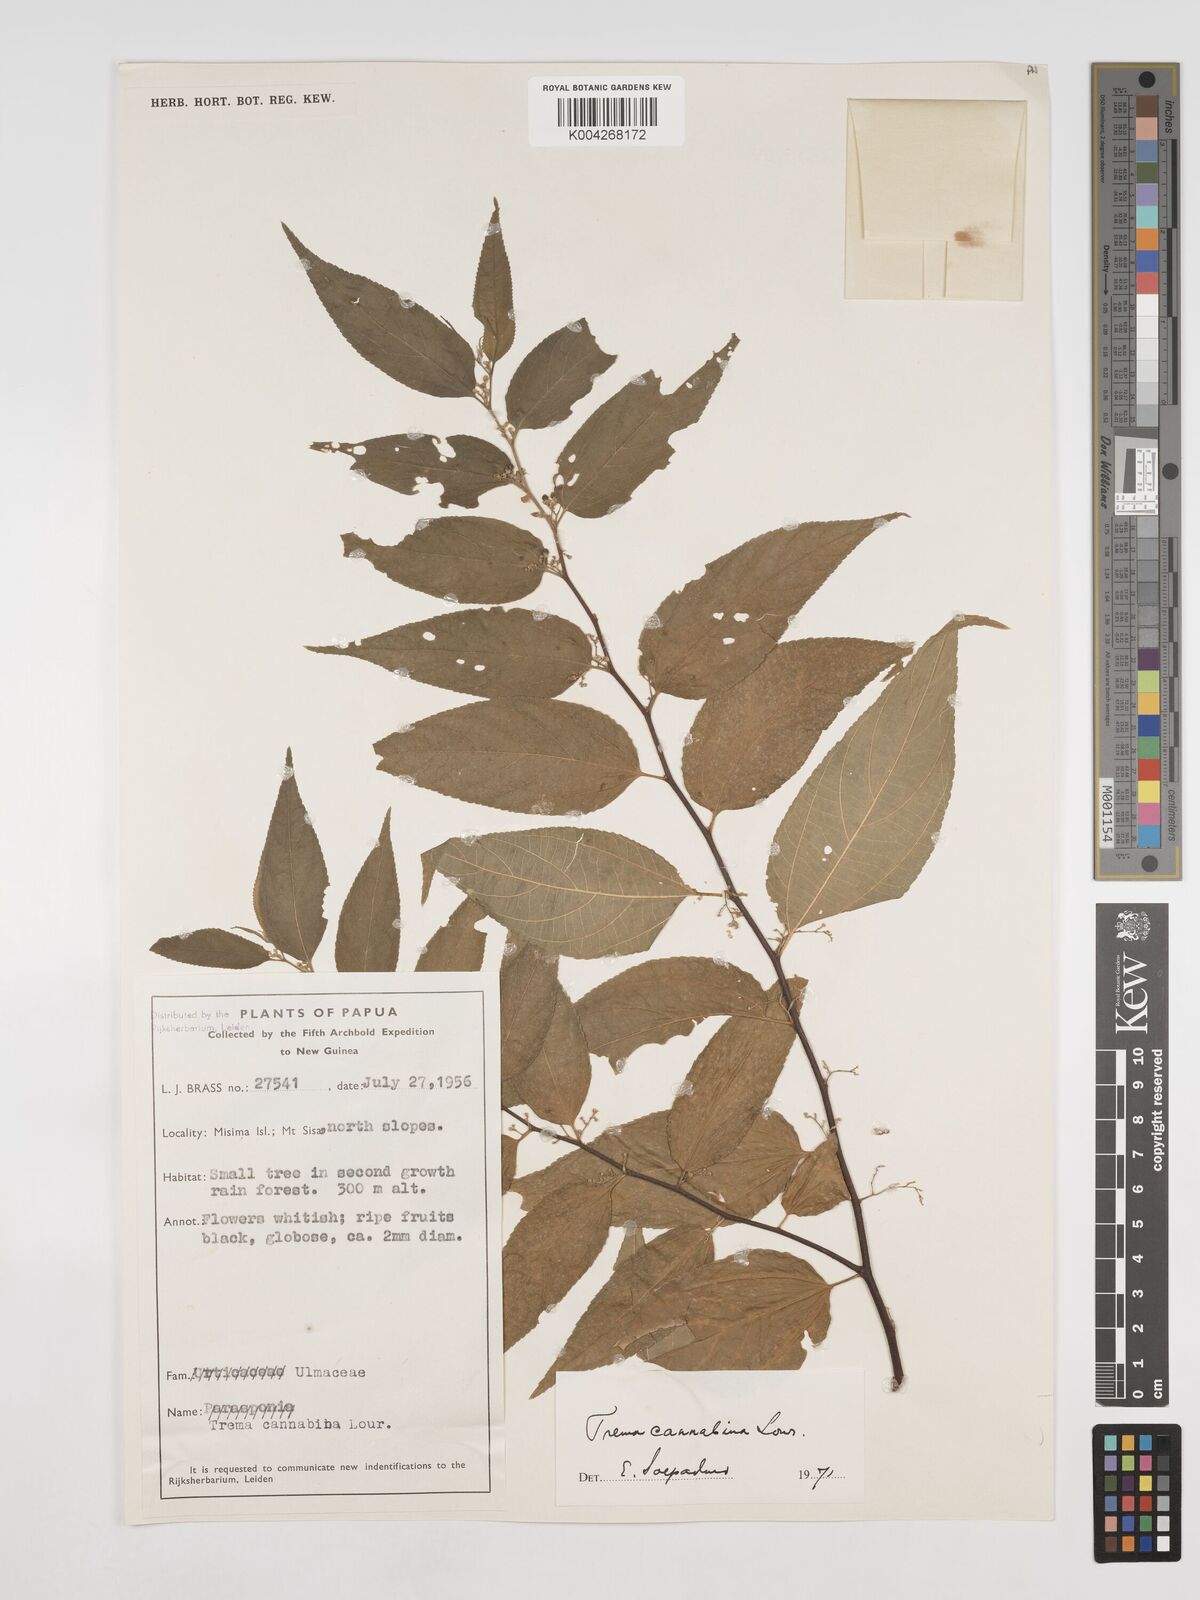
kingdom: Plantae
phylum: Tracheophyta
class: Magnoliopsida
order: Rosales
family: Cannabaceae
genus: Trema
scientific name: Trema
